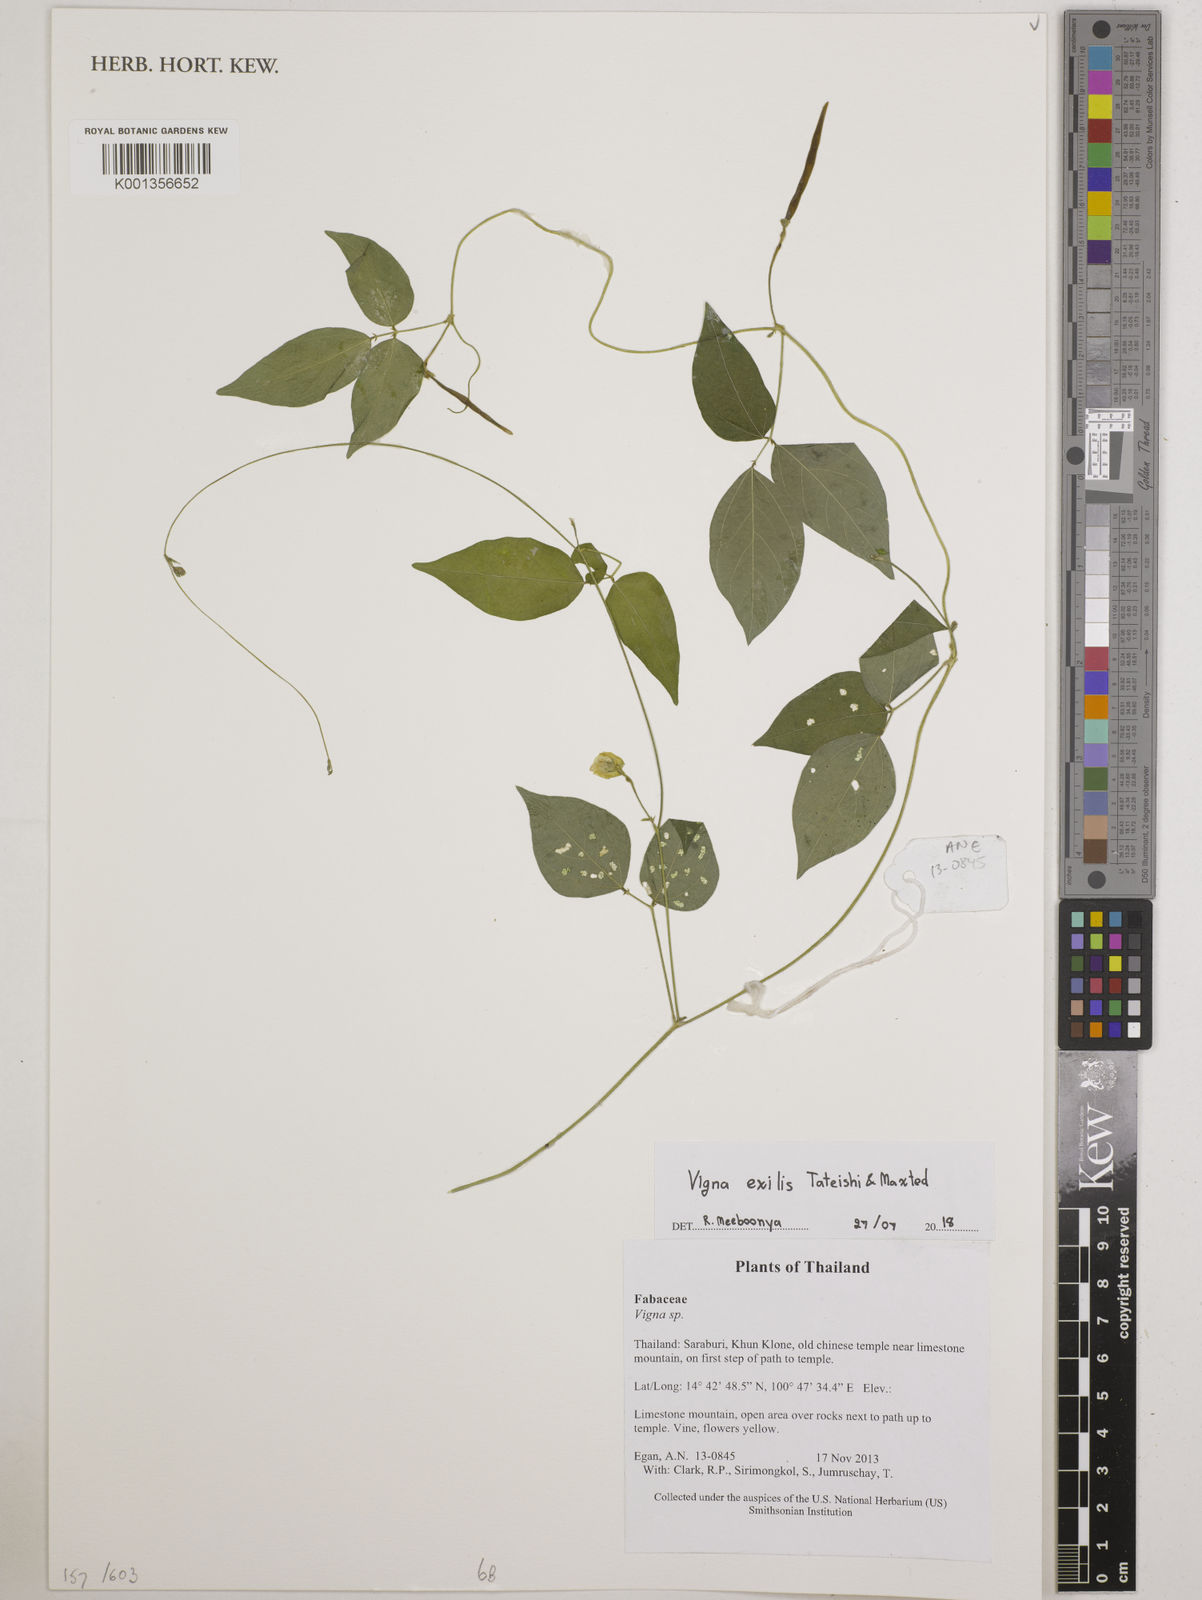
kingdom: Plantae
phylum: Tracheophyta
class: Magnoliopsida
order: Fabales
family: Fabaceae
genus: Vigna
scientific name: Vigna
